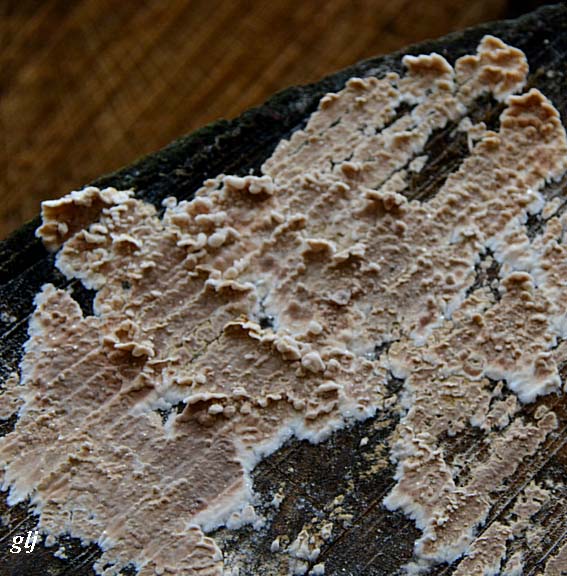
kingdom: Fungi
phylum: Basidiomycota
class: Agaricomycetes
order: Agaricales
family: Physalacriaceae
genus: Cylindrobasidium
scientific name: Cylindrobasidium evolvens
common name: sprækkehinde
